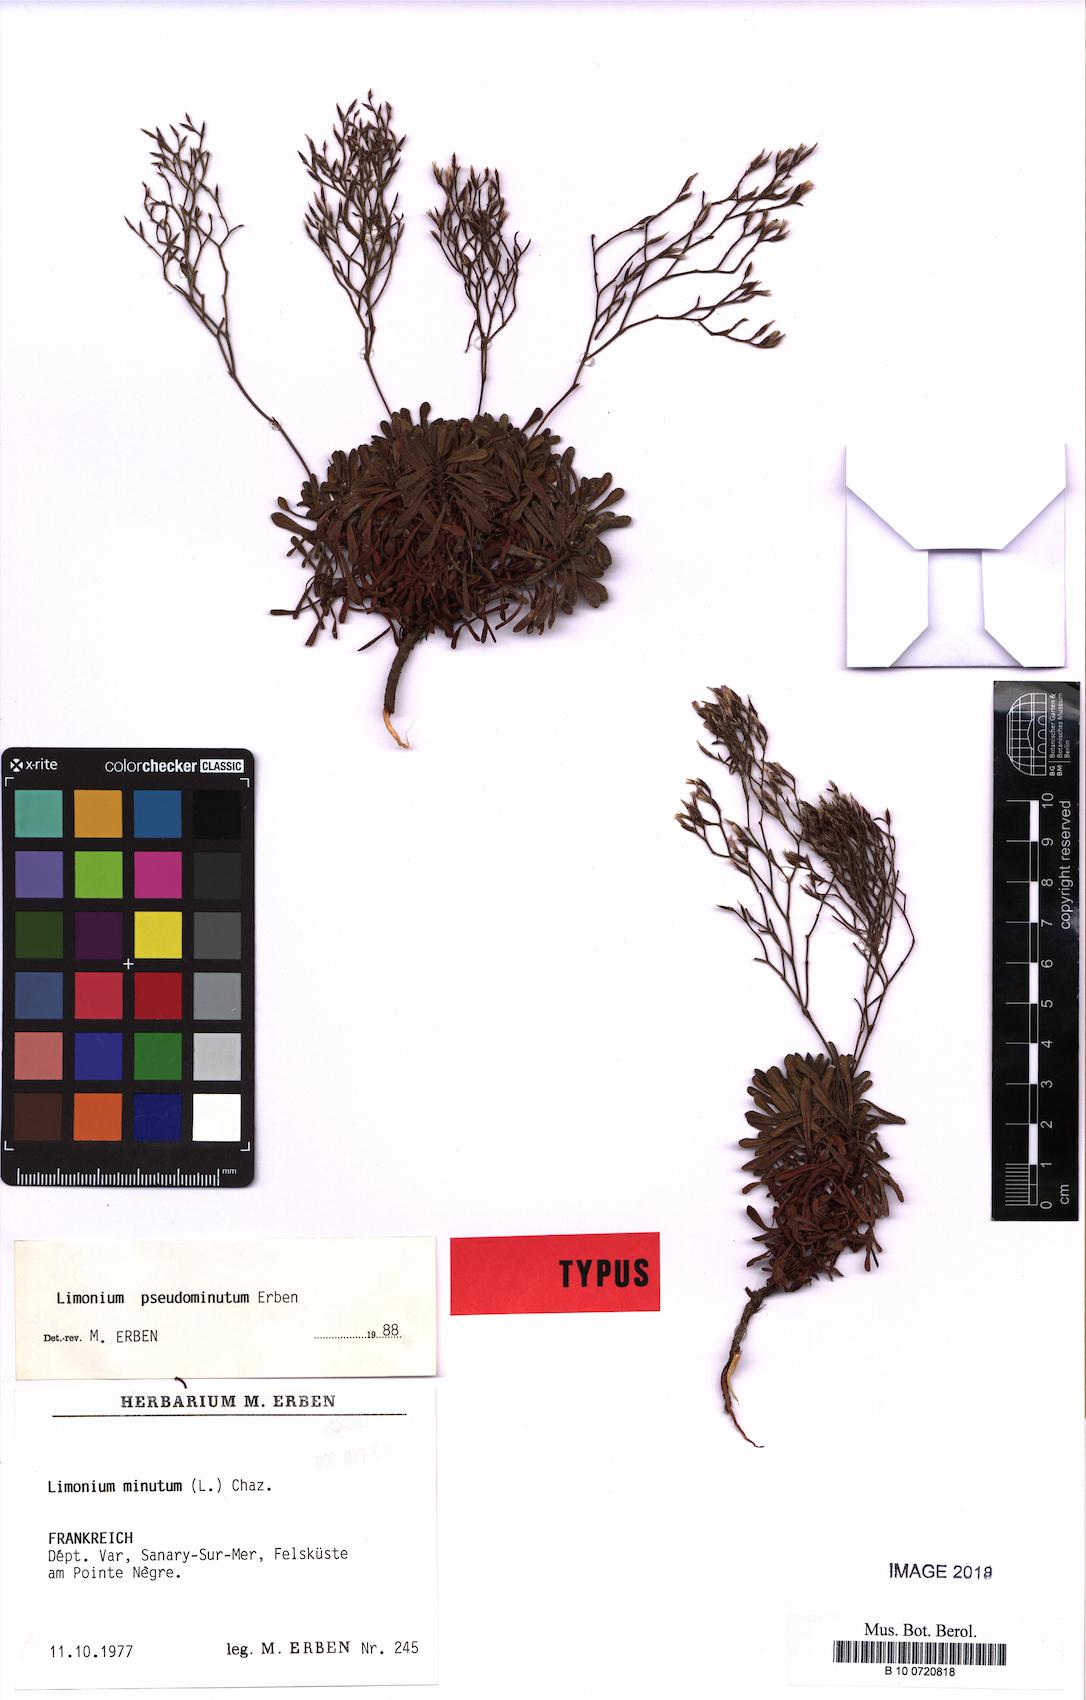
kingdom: Plantae
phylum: Tracheophyta
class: Magnoliopsida
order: Caryophyllales
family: Plumbaginaceae
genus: Limonium
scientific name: Limonium pseudominutum
